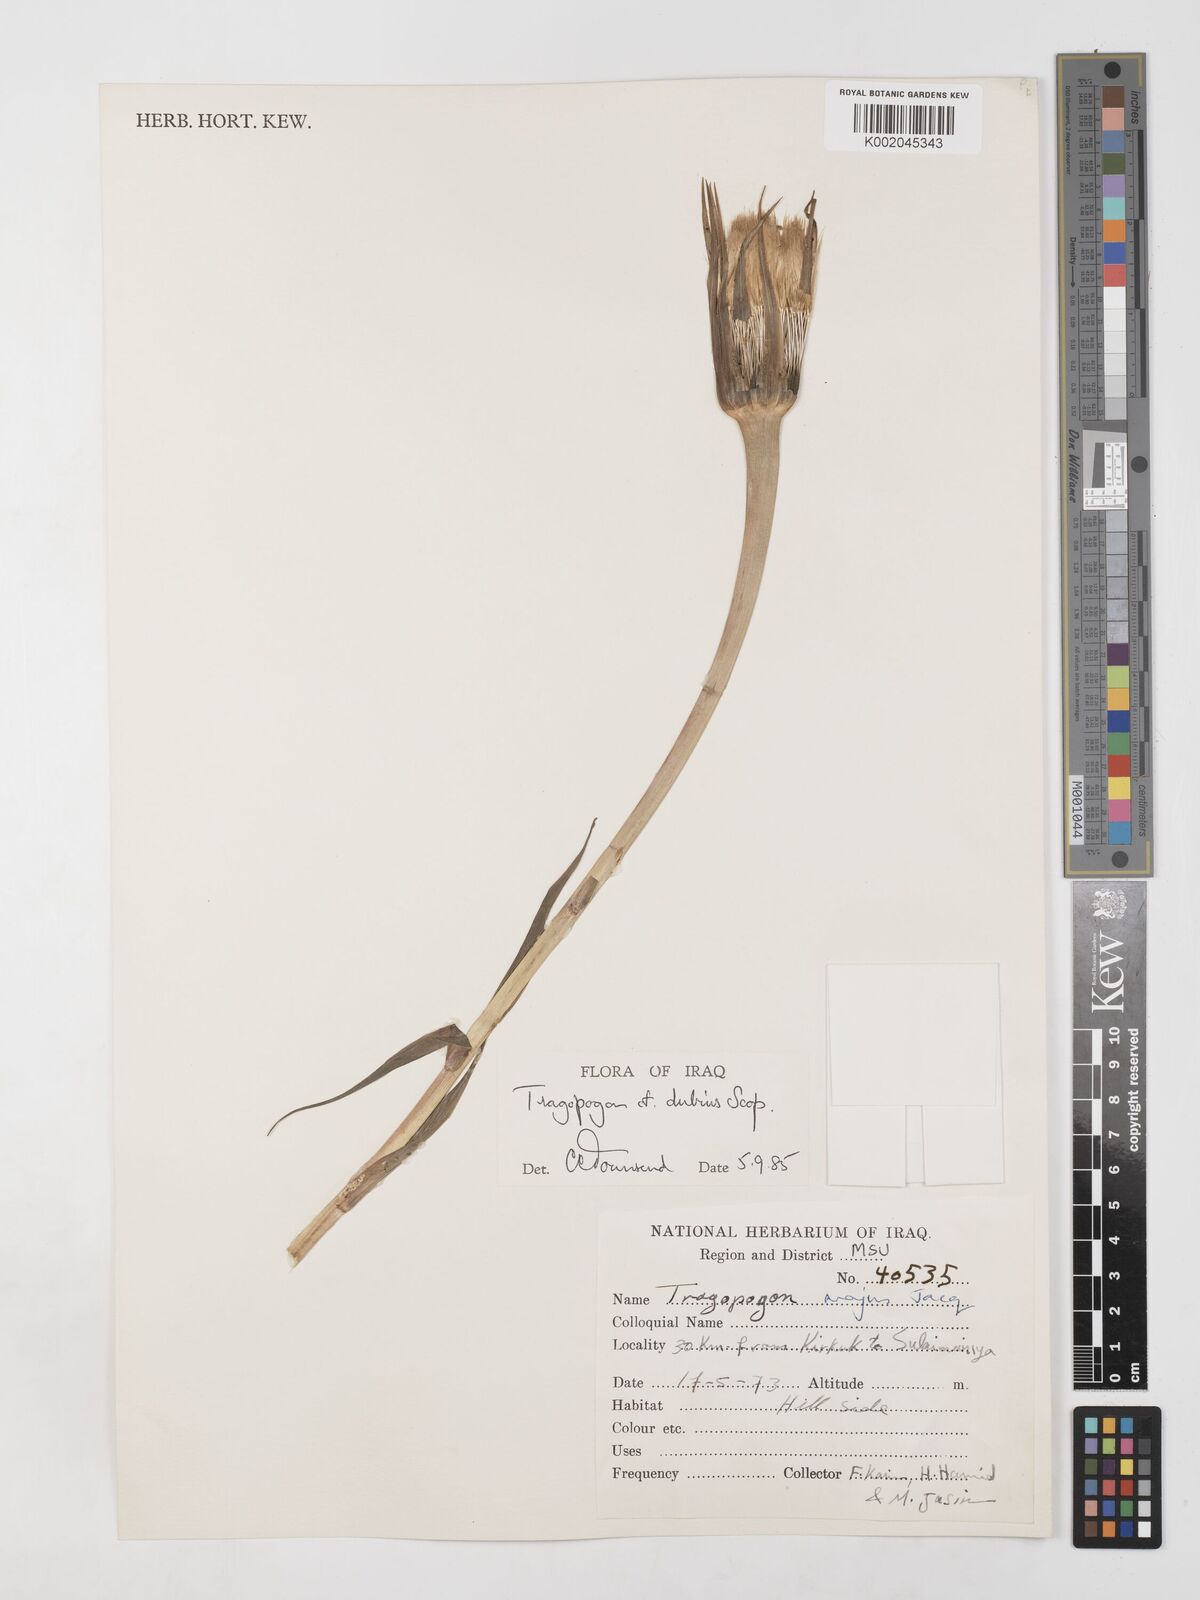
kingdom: Plantae
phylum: Tracheophyta
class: Magnoliopsida
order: Asterales
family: Asteraceae
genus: Tragopogon
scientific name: Tragopogon dubius
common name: Yellow salsify
